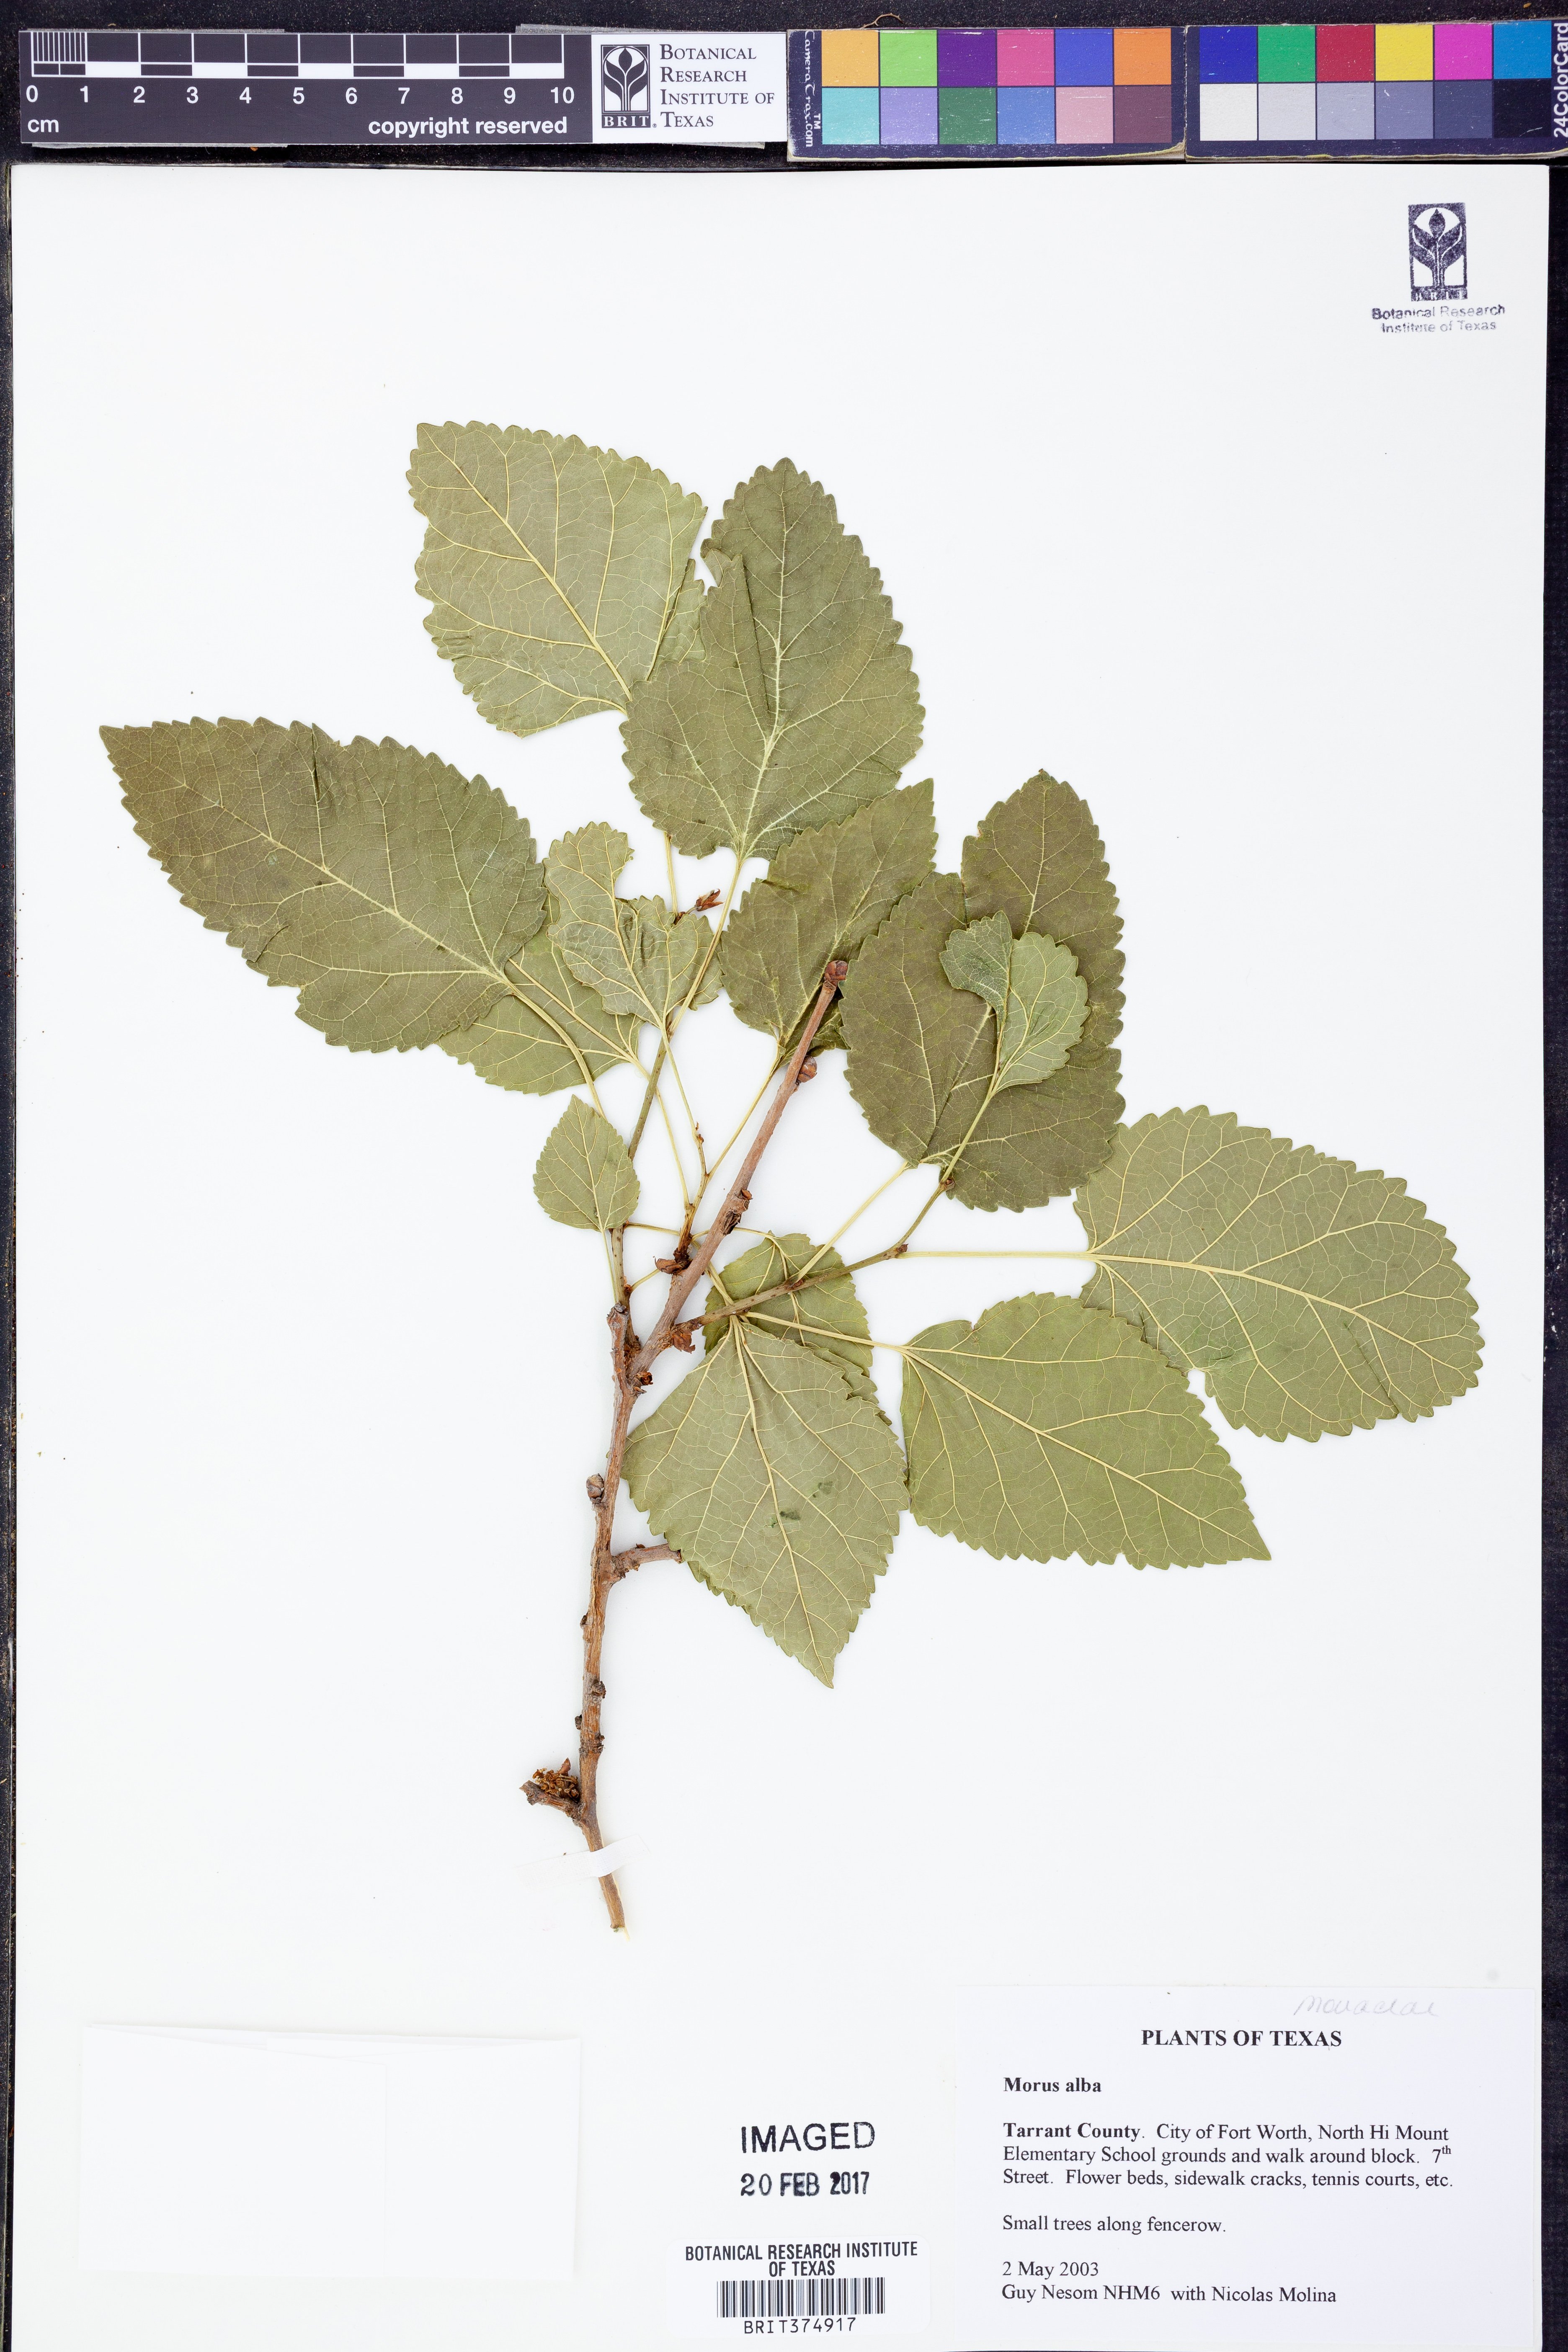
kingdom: Plantae
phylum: Tracheophyta
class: Magnoliopsida
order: Rosales
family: Moraceae
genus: Morus
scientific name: Morus alba
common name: White mulberry
